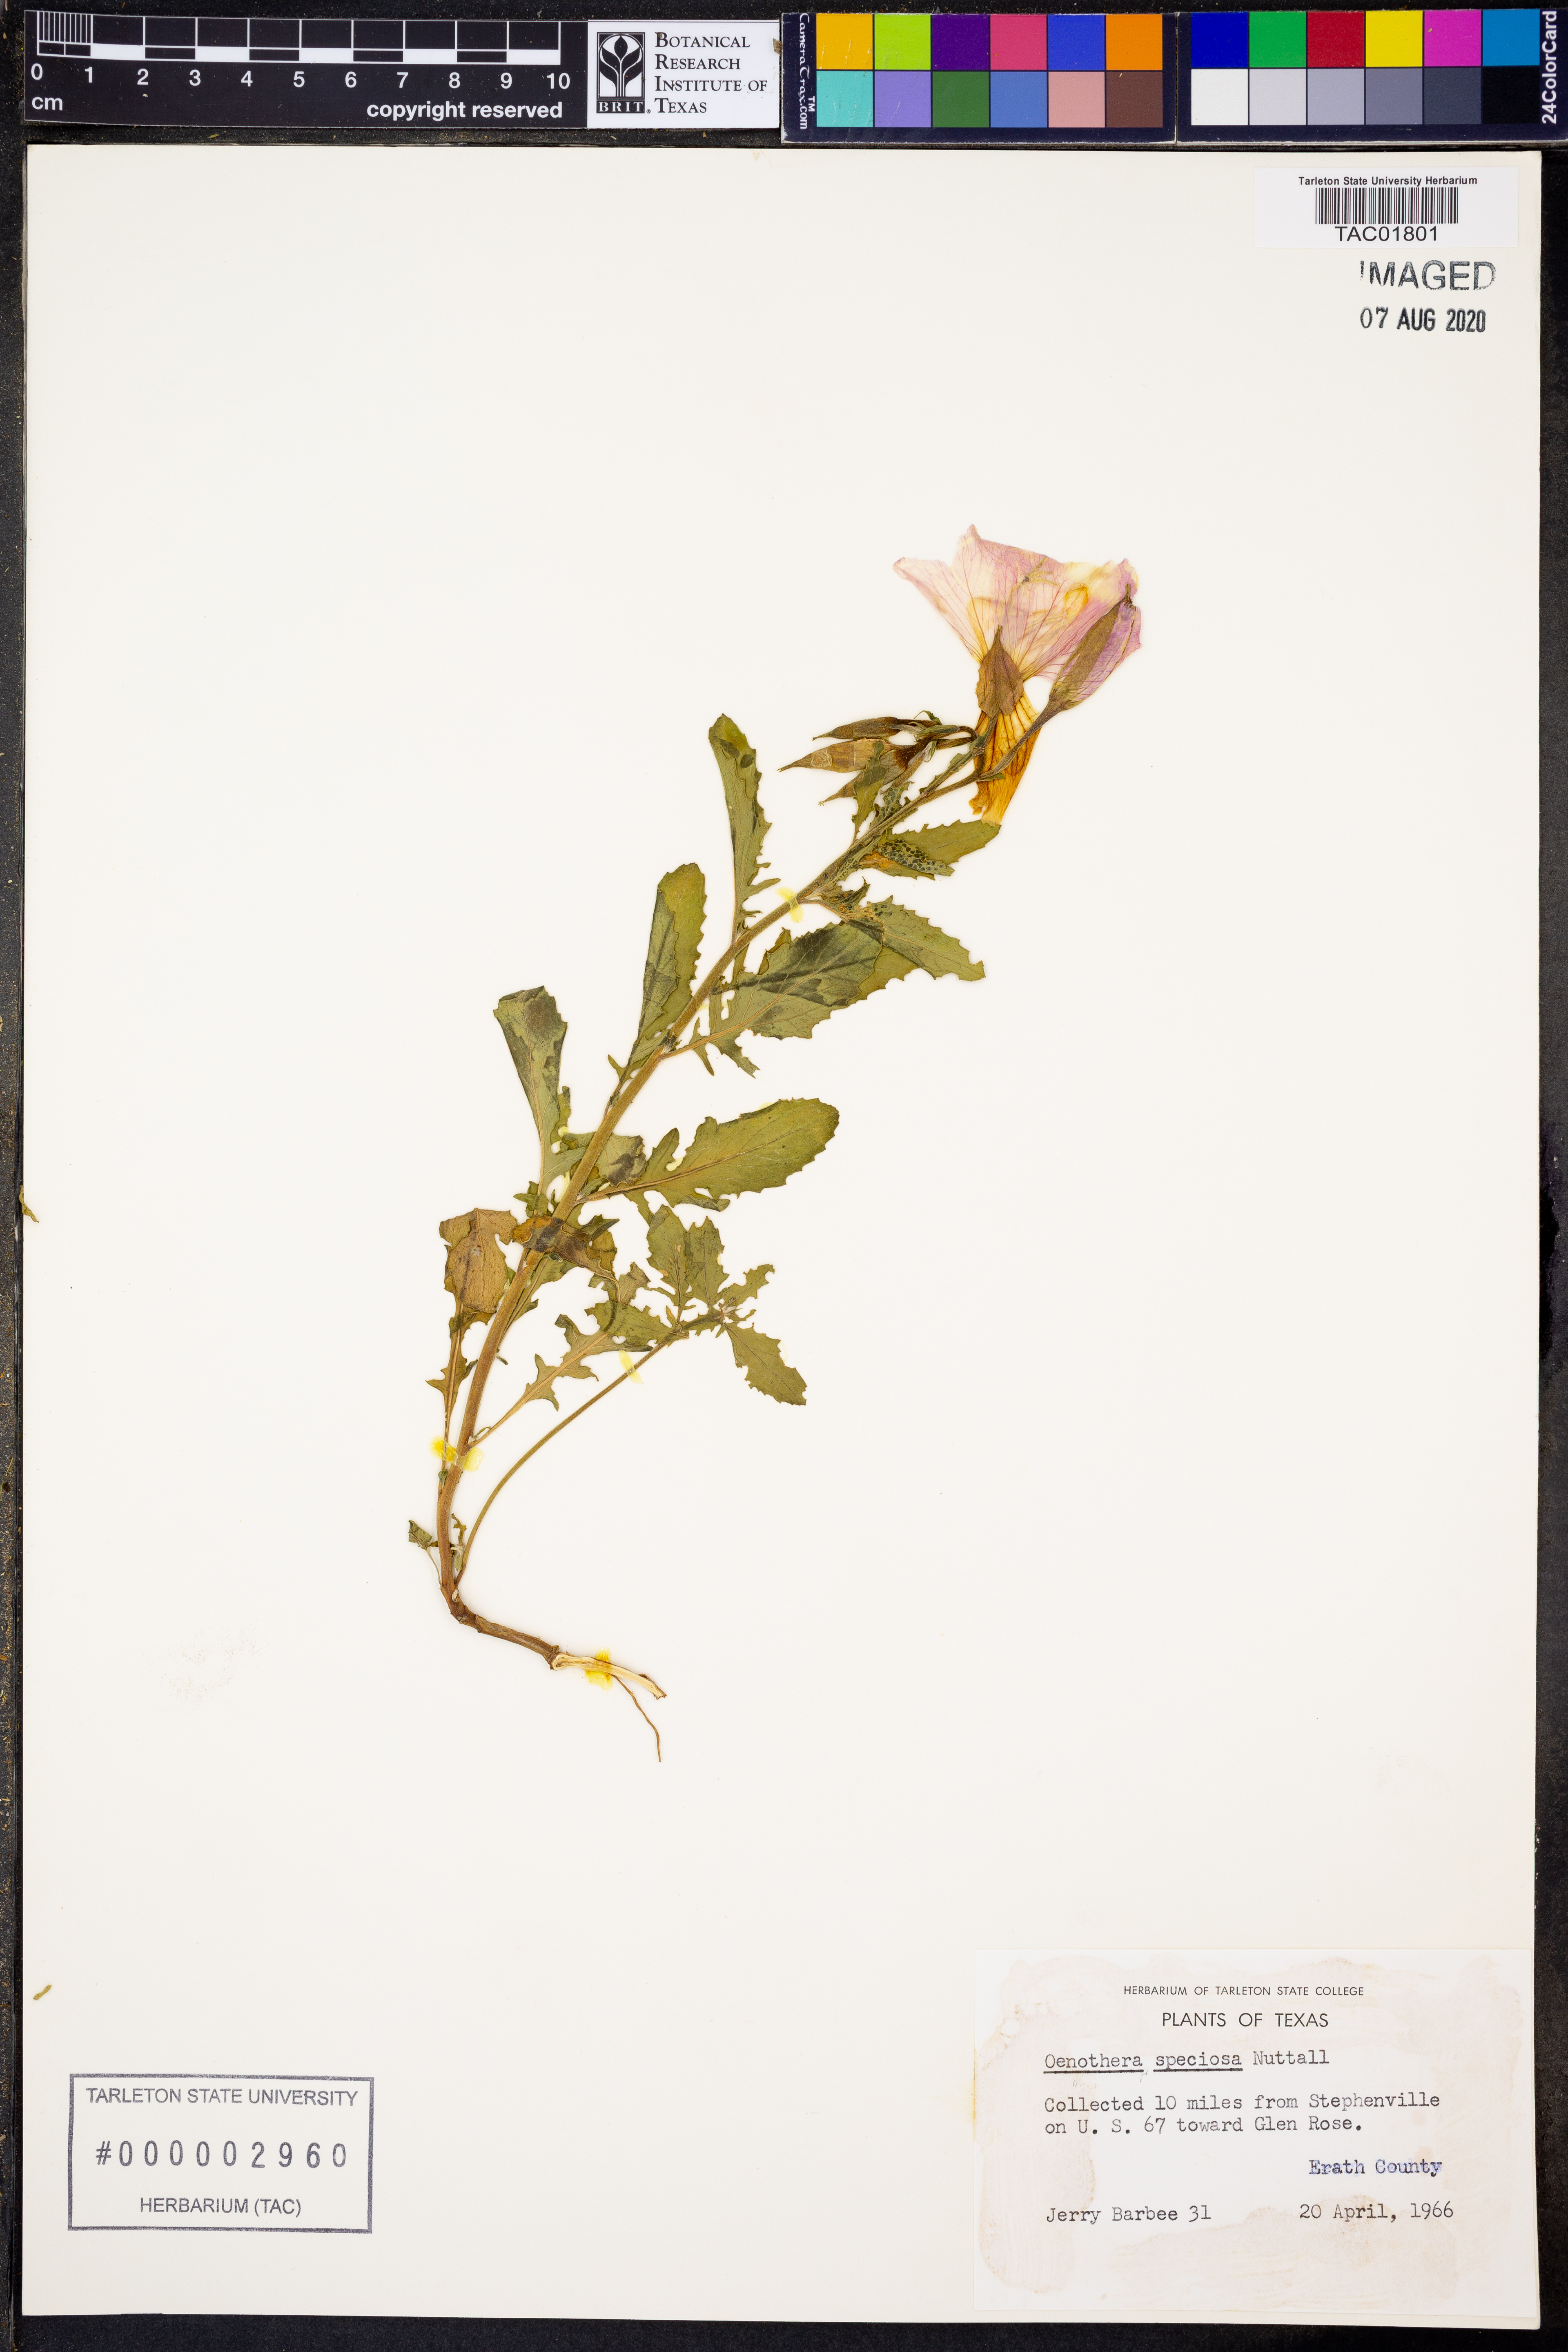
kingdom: Plantae
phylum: Tracheophyta
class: Magnoliopsida
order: Myrtales
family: Onagraceae
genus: Oenothera
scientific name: Oenothera speciosa
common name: White evening-primrose
